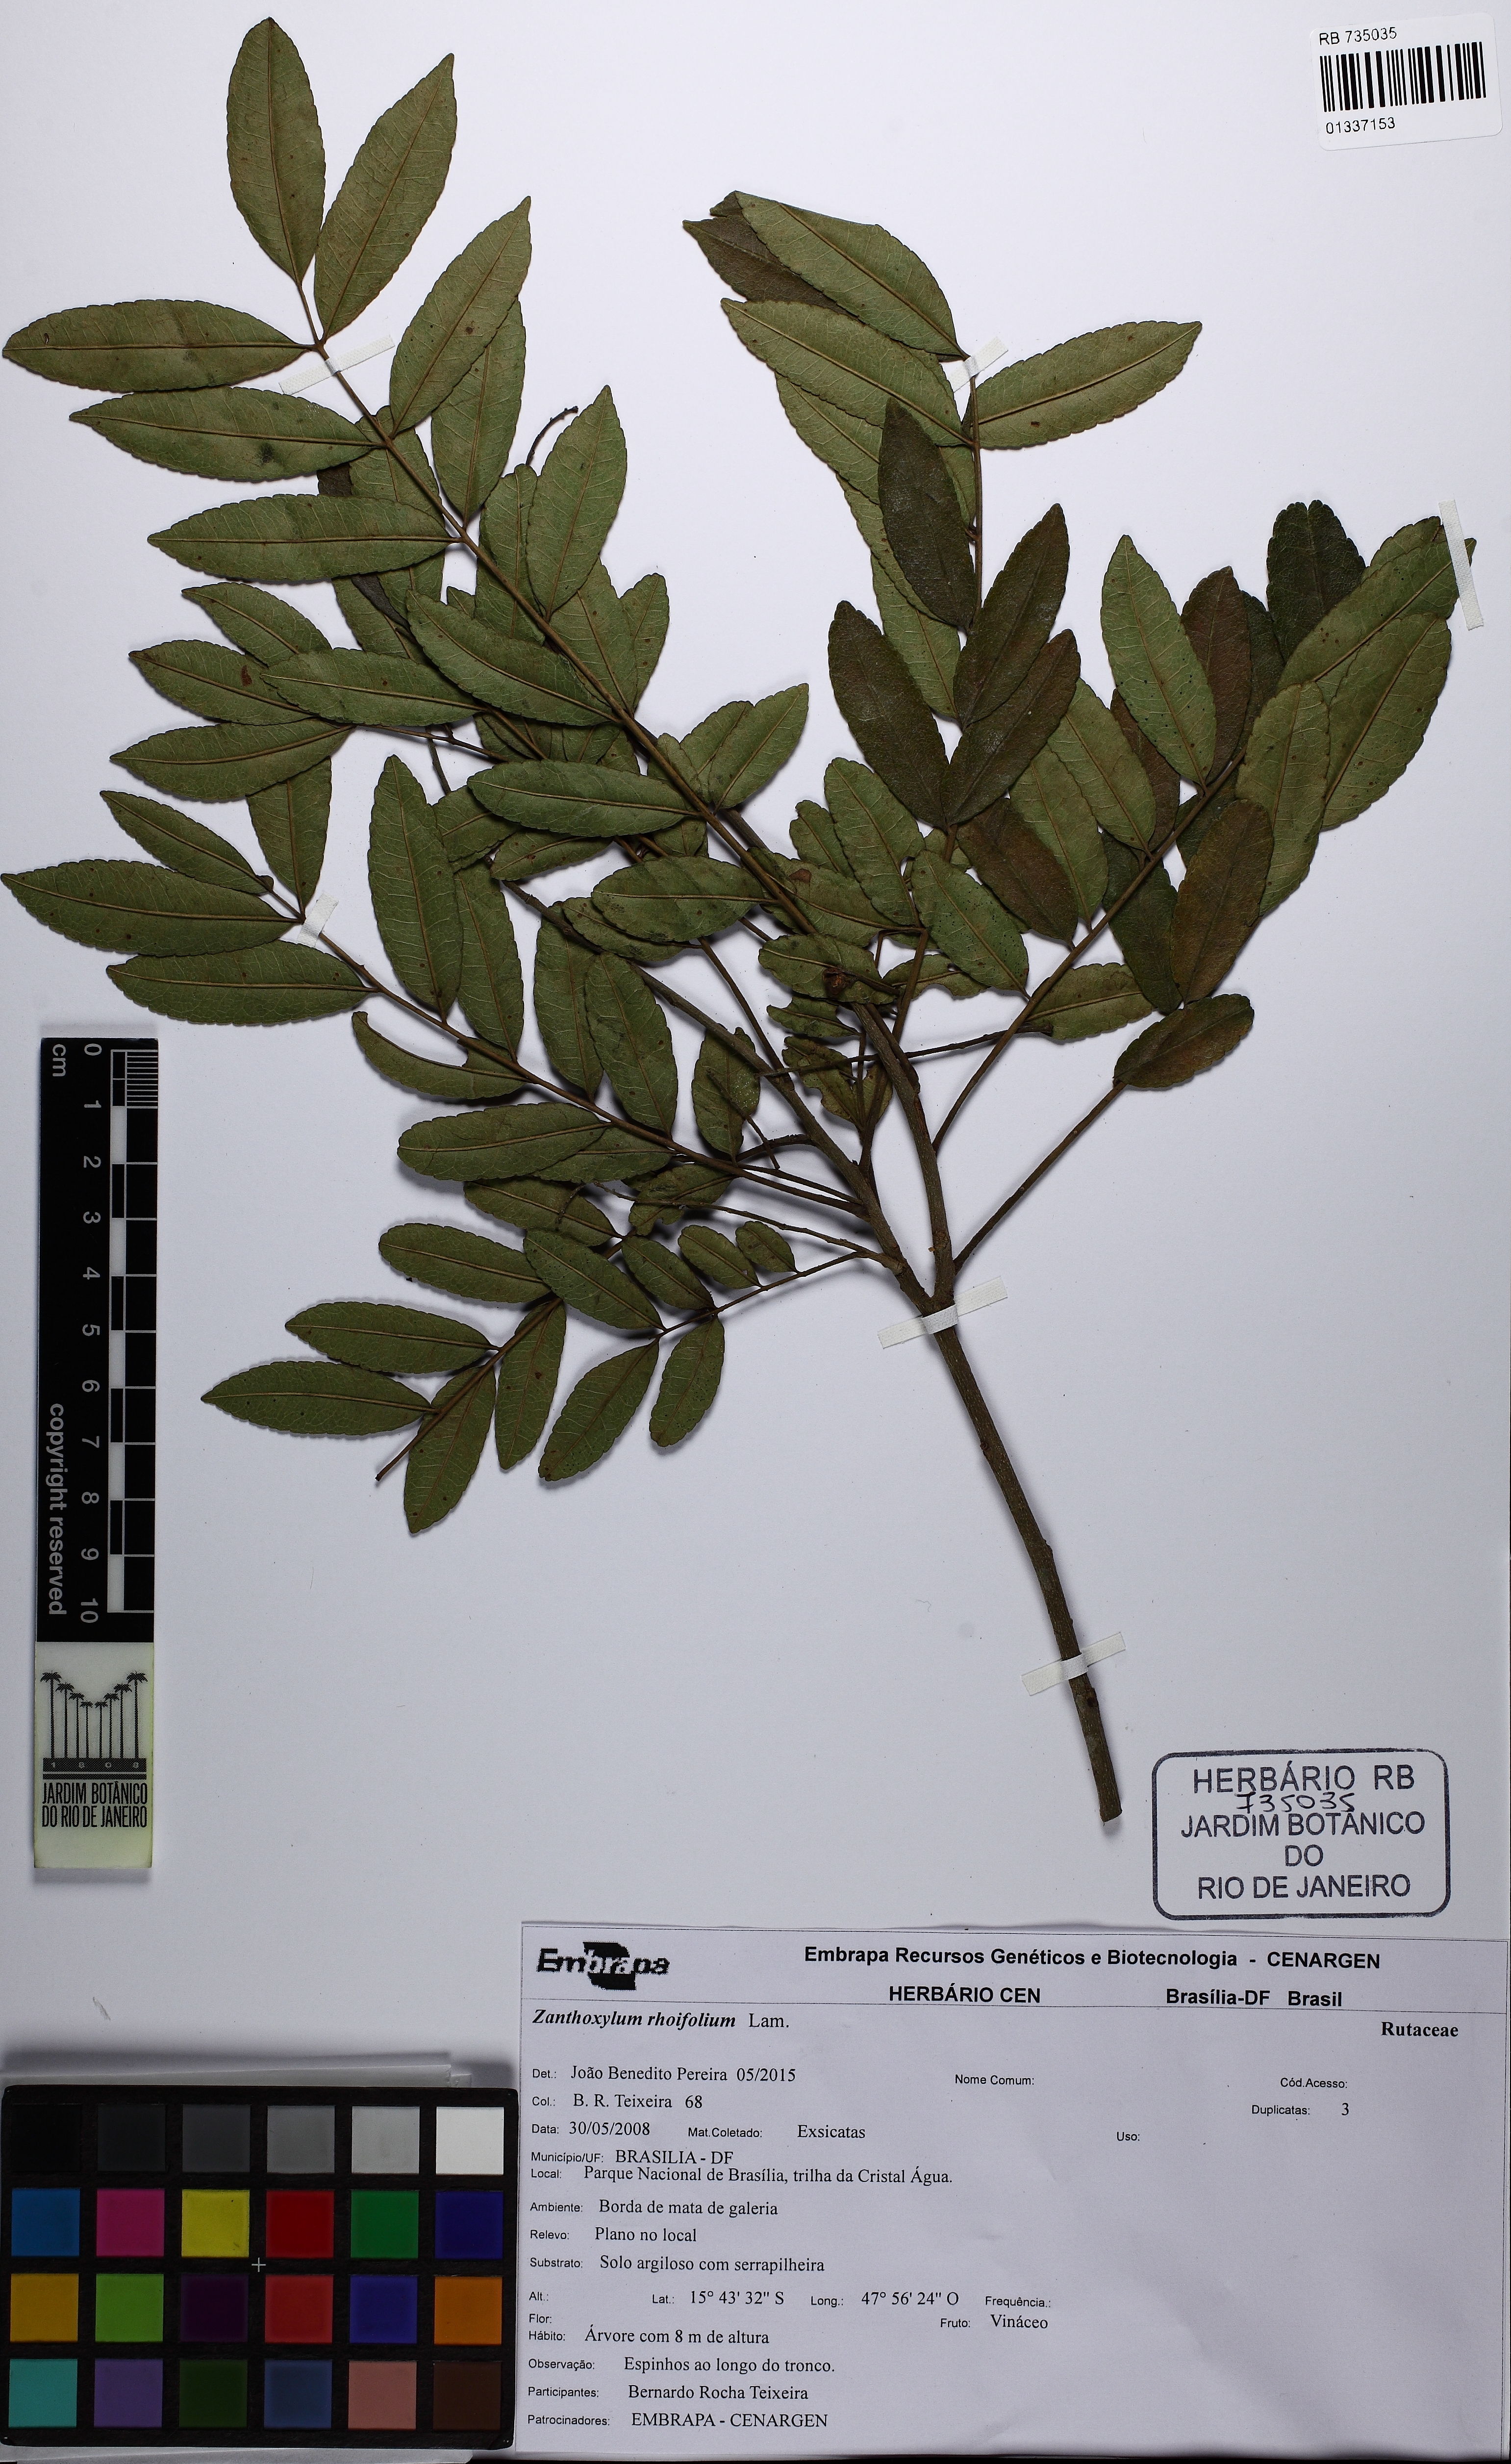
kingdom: Plantae
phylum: Tracheophyta
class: Magnoliopsida
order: Sapindales
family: Rutaceae
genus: Zanthoxylum
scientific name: Zanthoxylum rhoifolium
